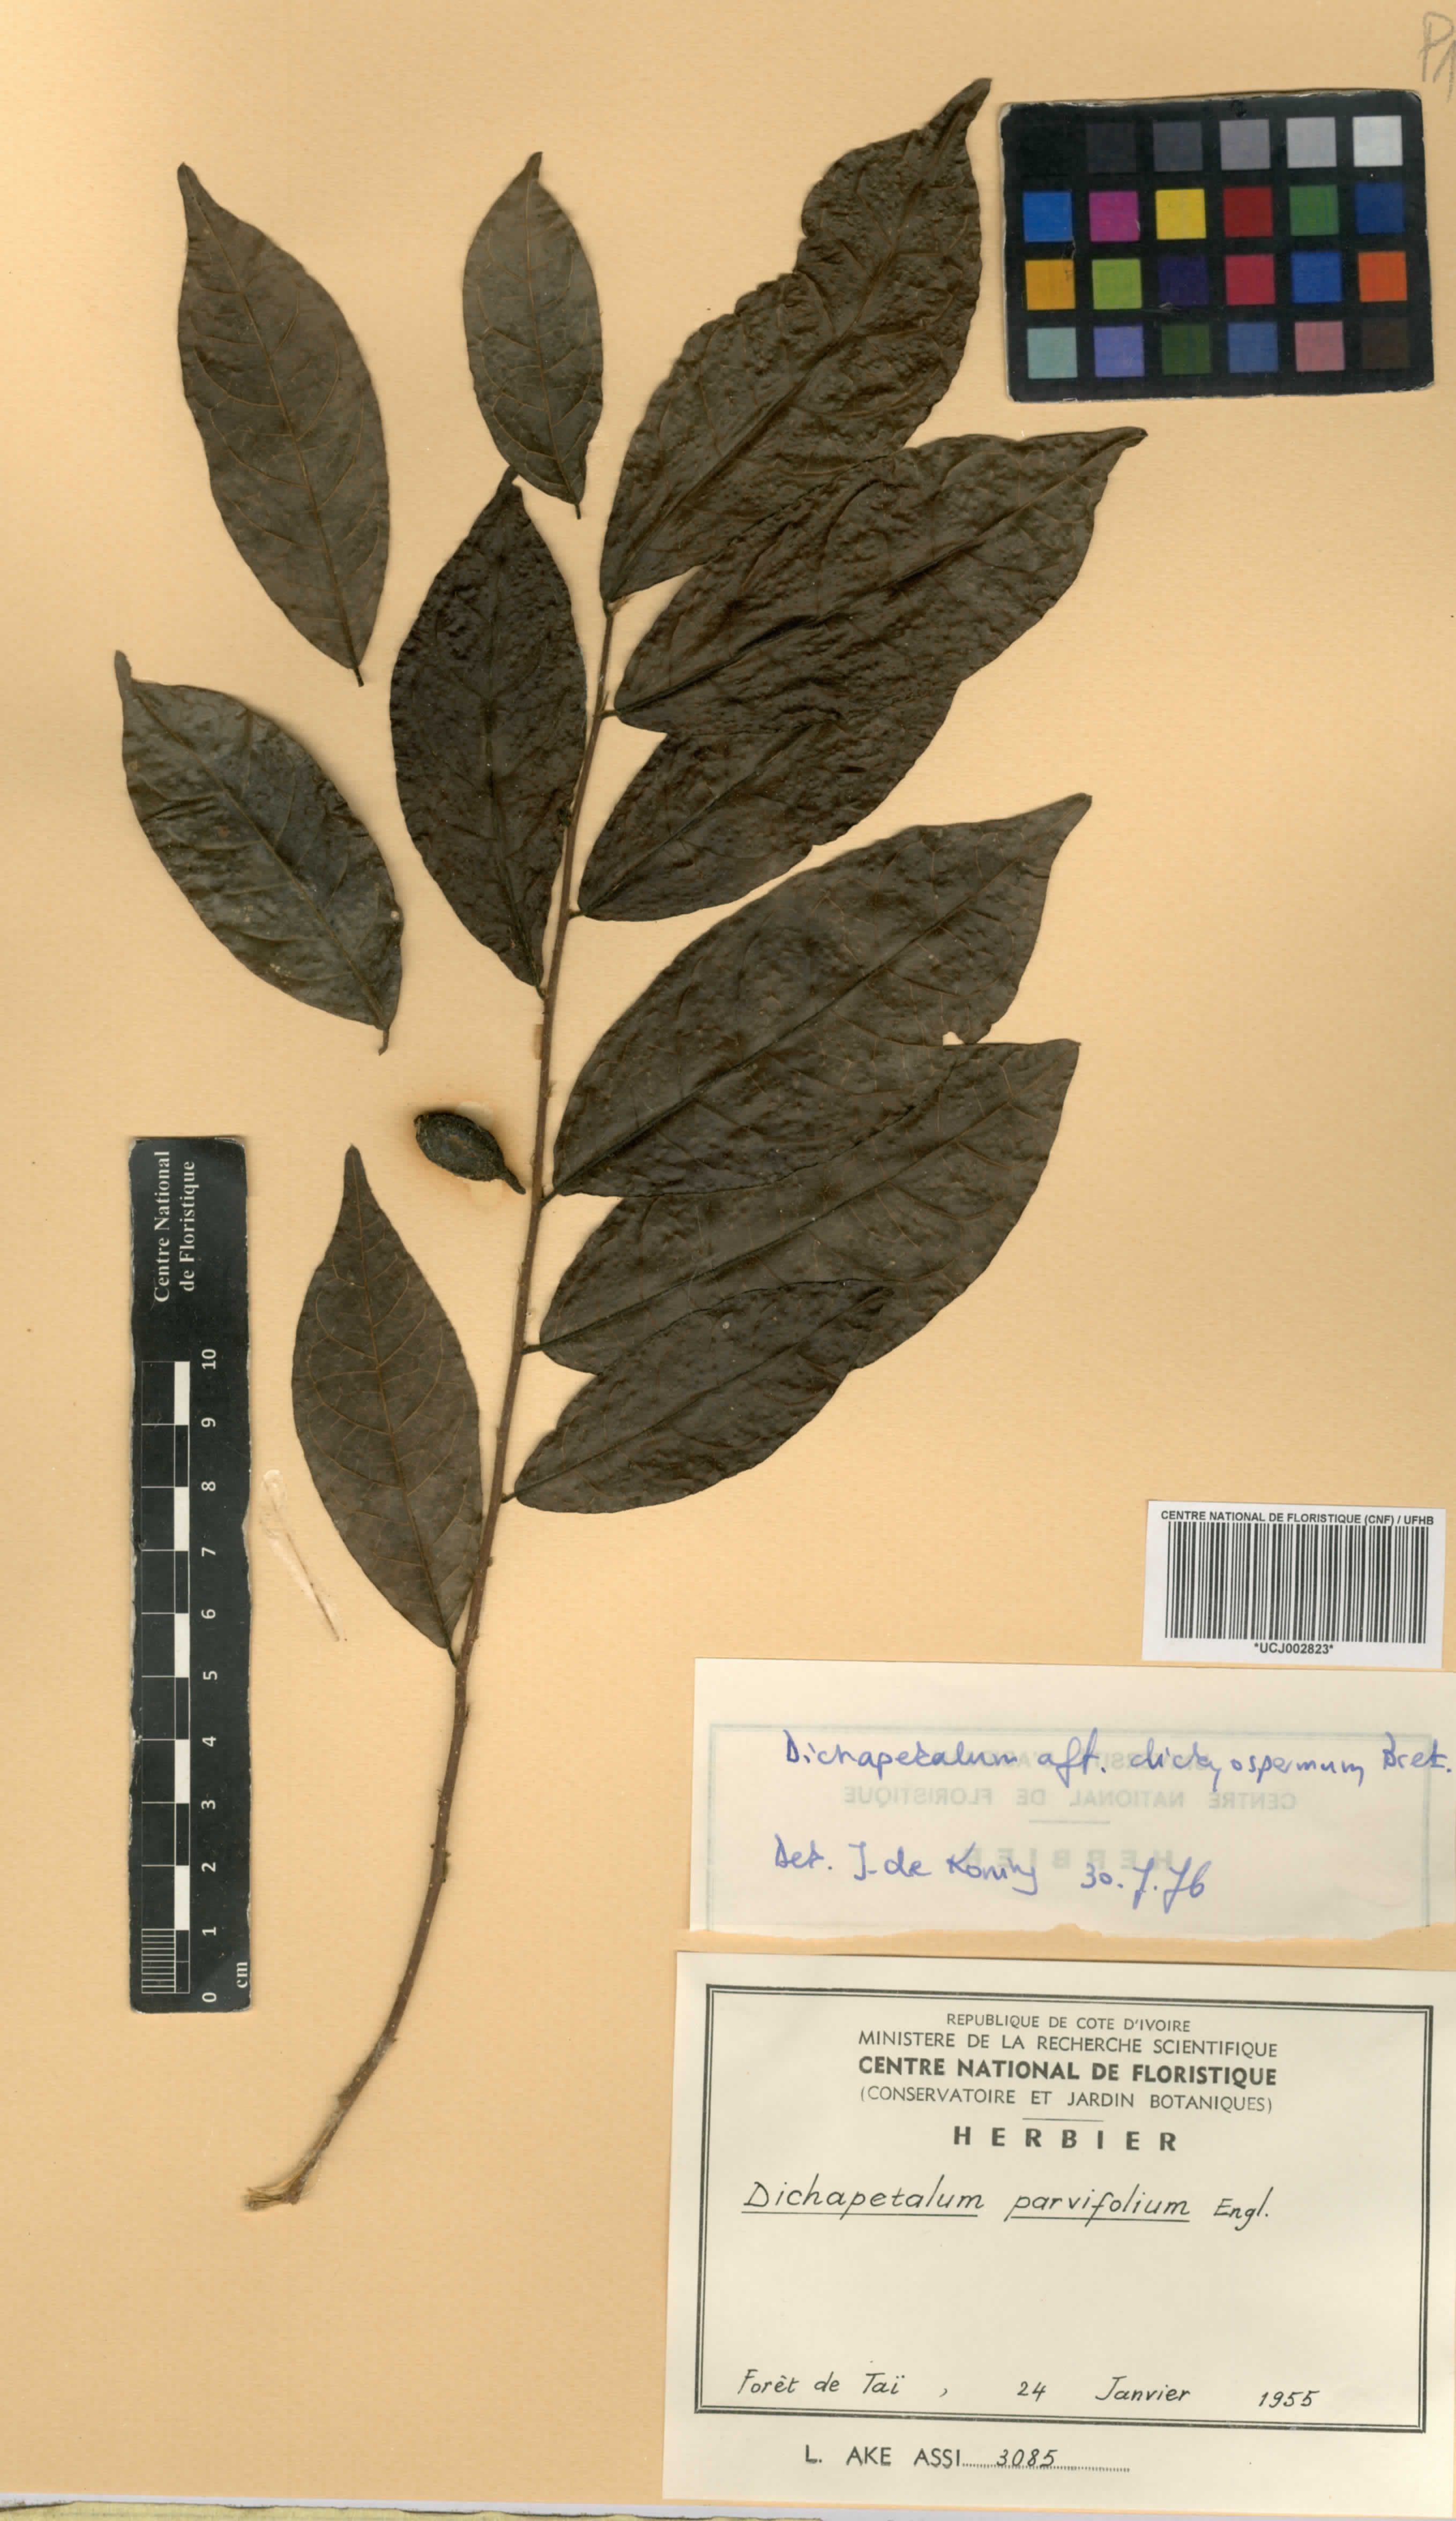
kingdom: Plantae
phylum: Tracheophyta
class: Magnoliopsida
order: Malpighiales
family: Dichapetalaceae
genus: Dichapetalum
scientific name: Dichapetalum parvifolium
